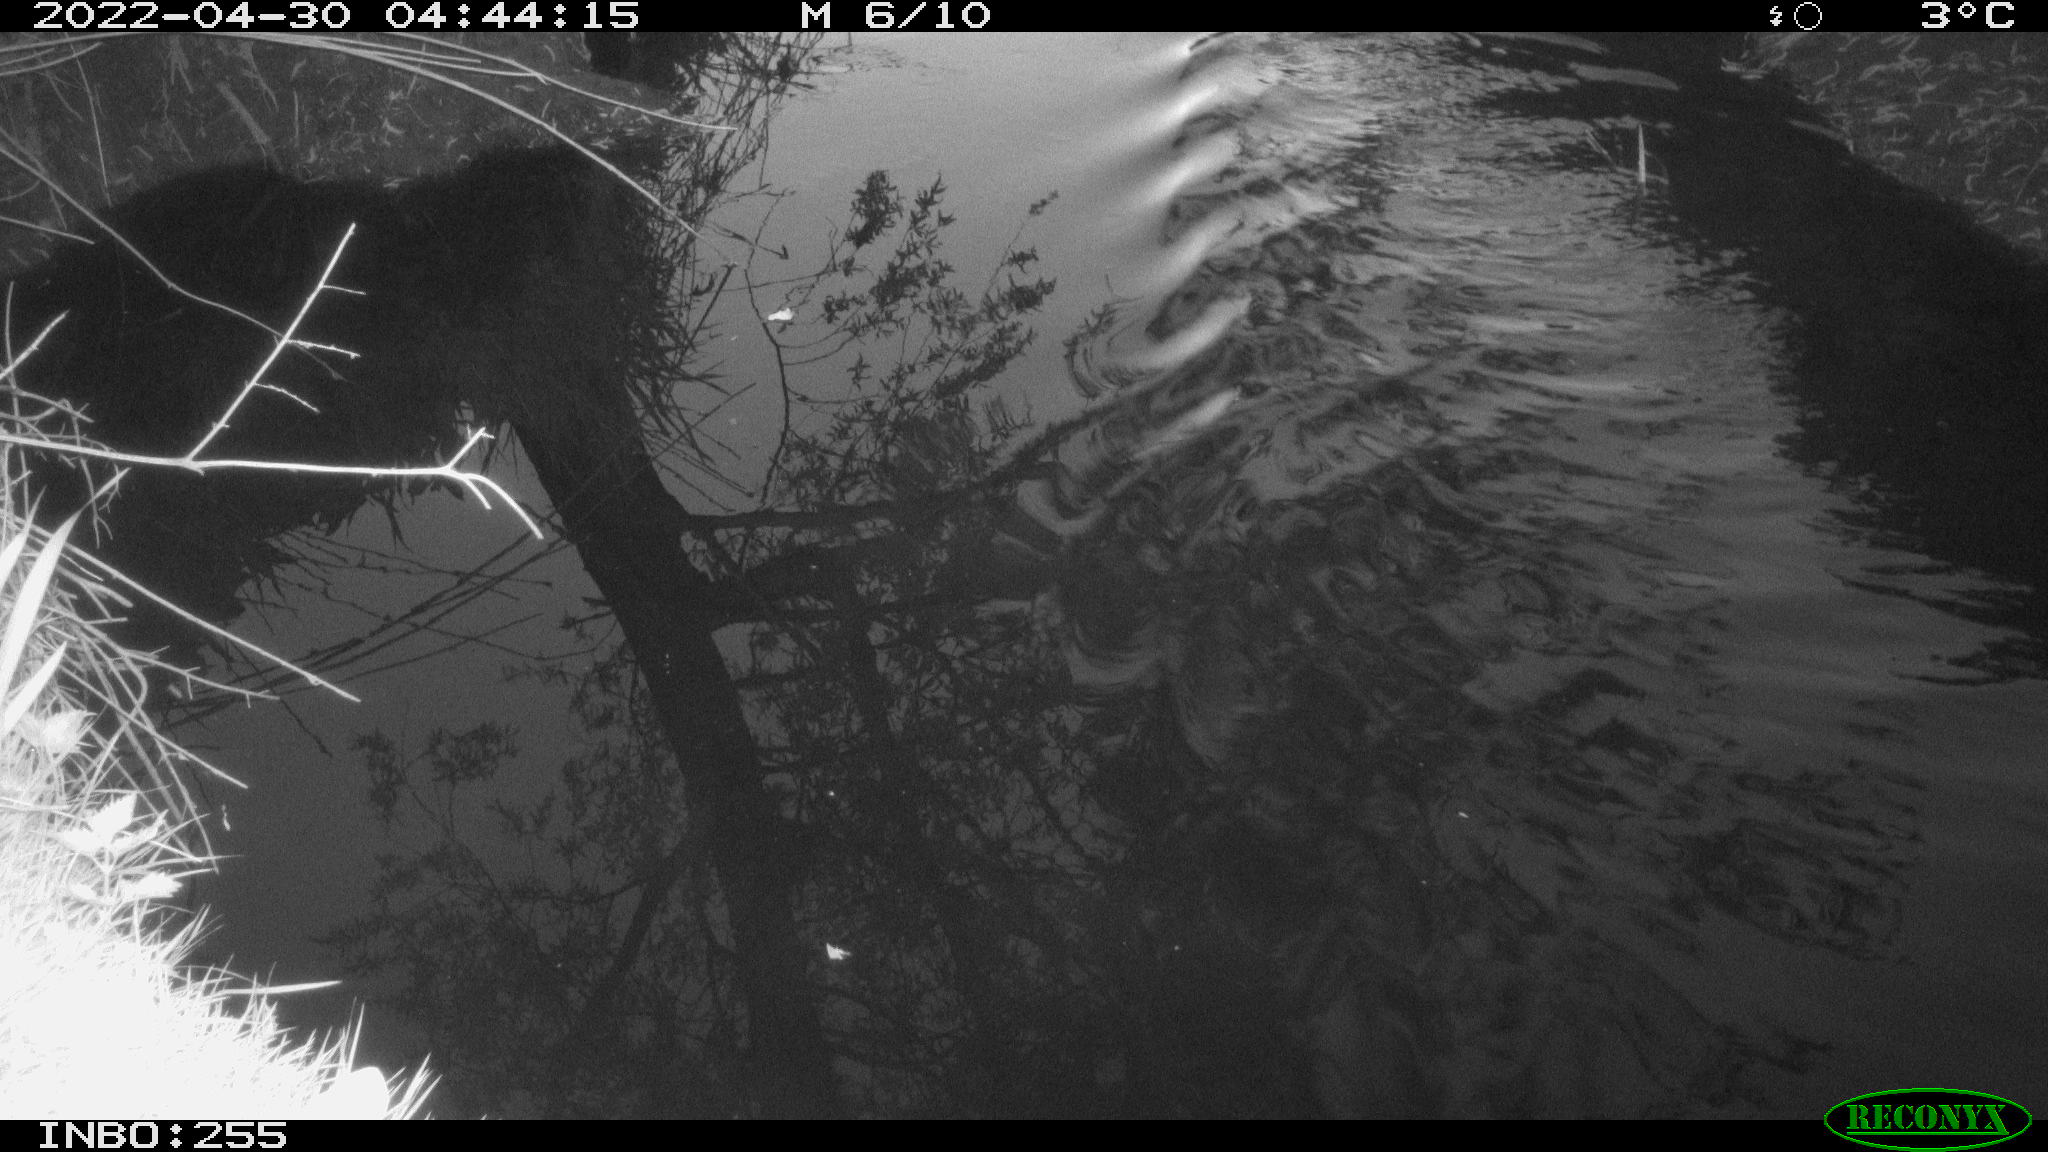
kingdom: Animalia
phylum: Chordata
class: Aves
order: Gruiformes
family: Rallidae
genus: Gallinula
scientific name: Gallinula chloropus
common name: Common moorhen
